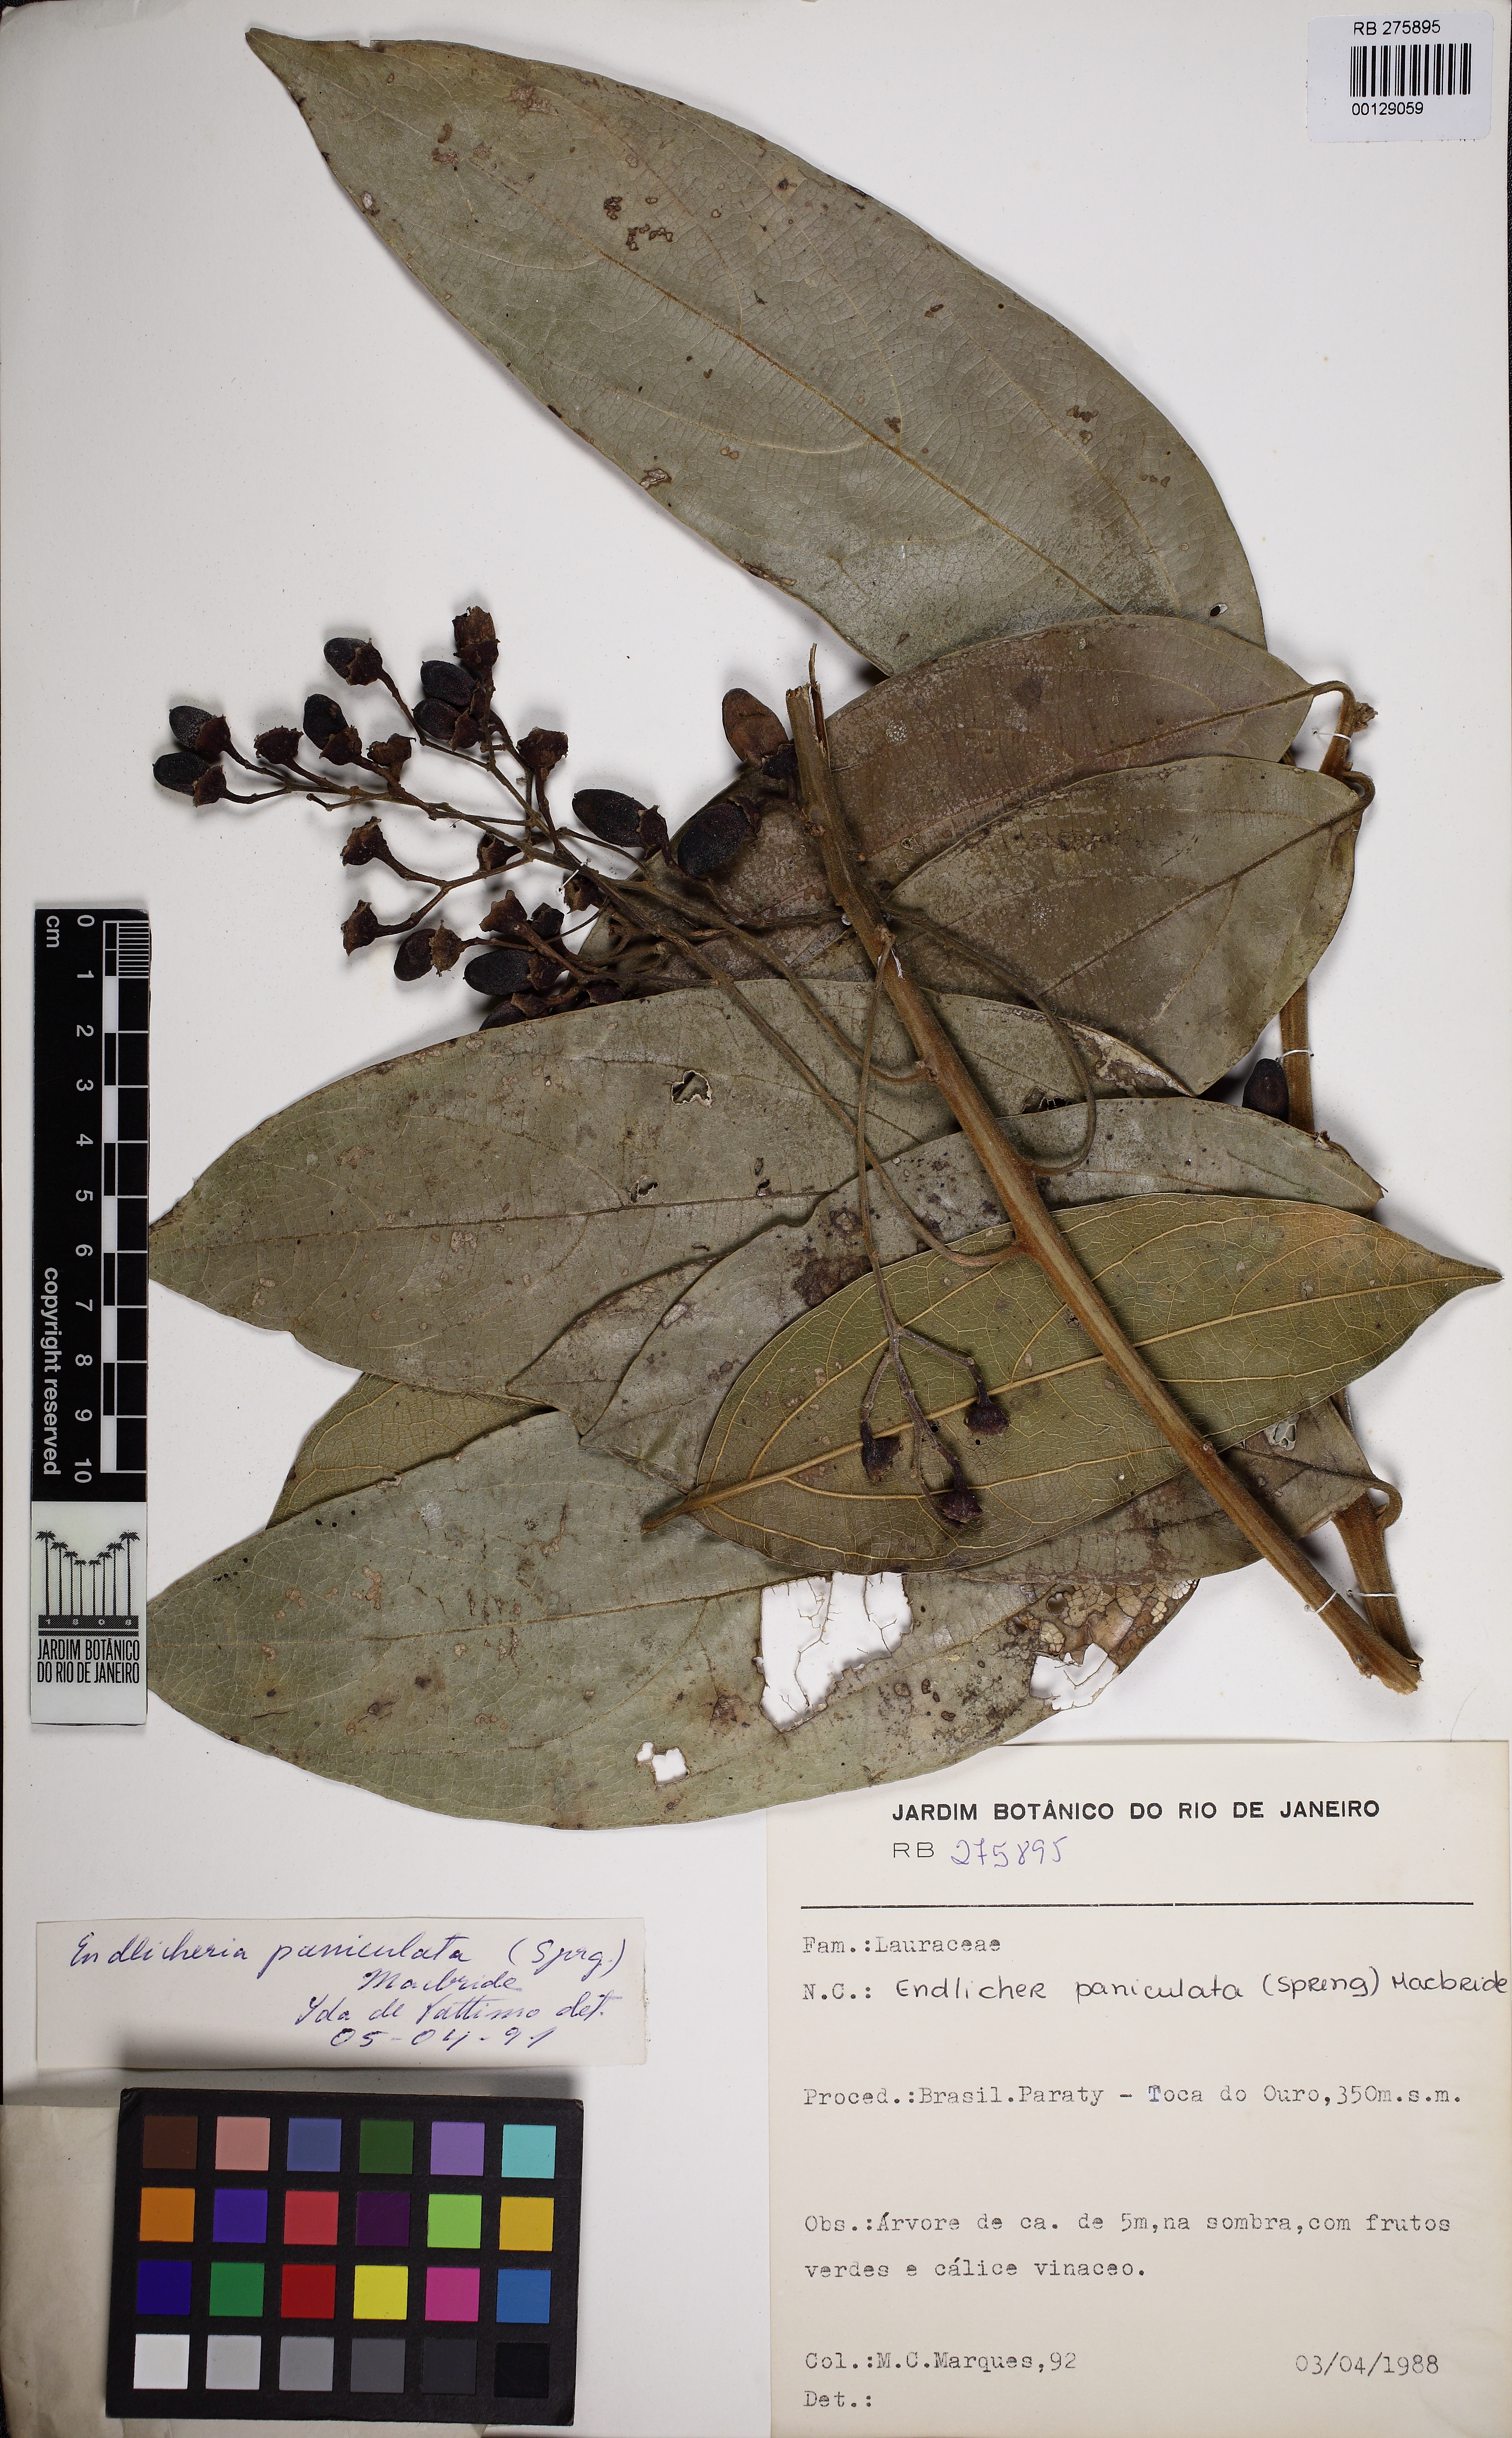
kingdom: Plantae
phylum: Tracheophyta
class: Magnoliopsida
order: Laurales
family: Lauraceae
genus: Endlicheria
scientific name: Endlicheria paniculata
